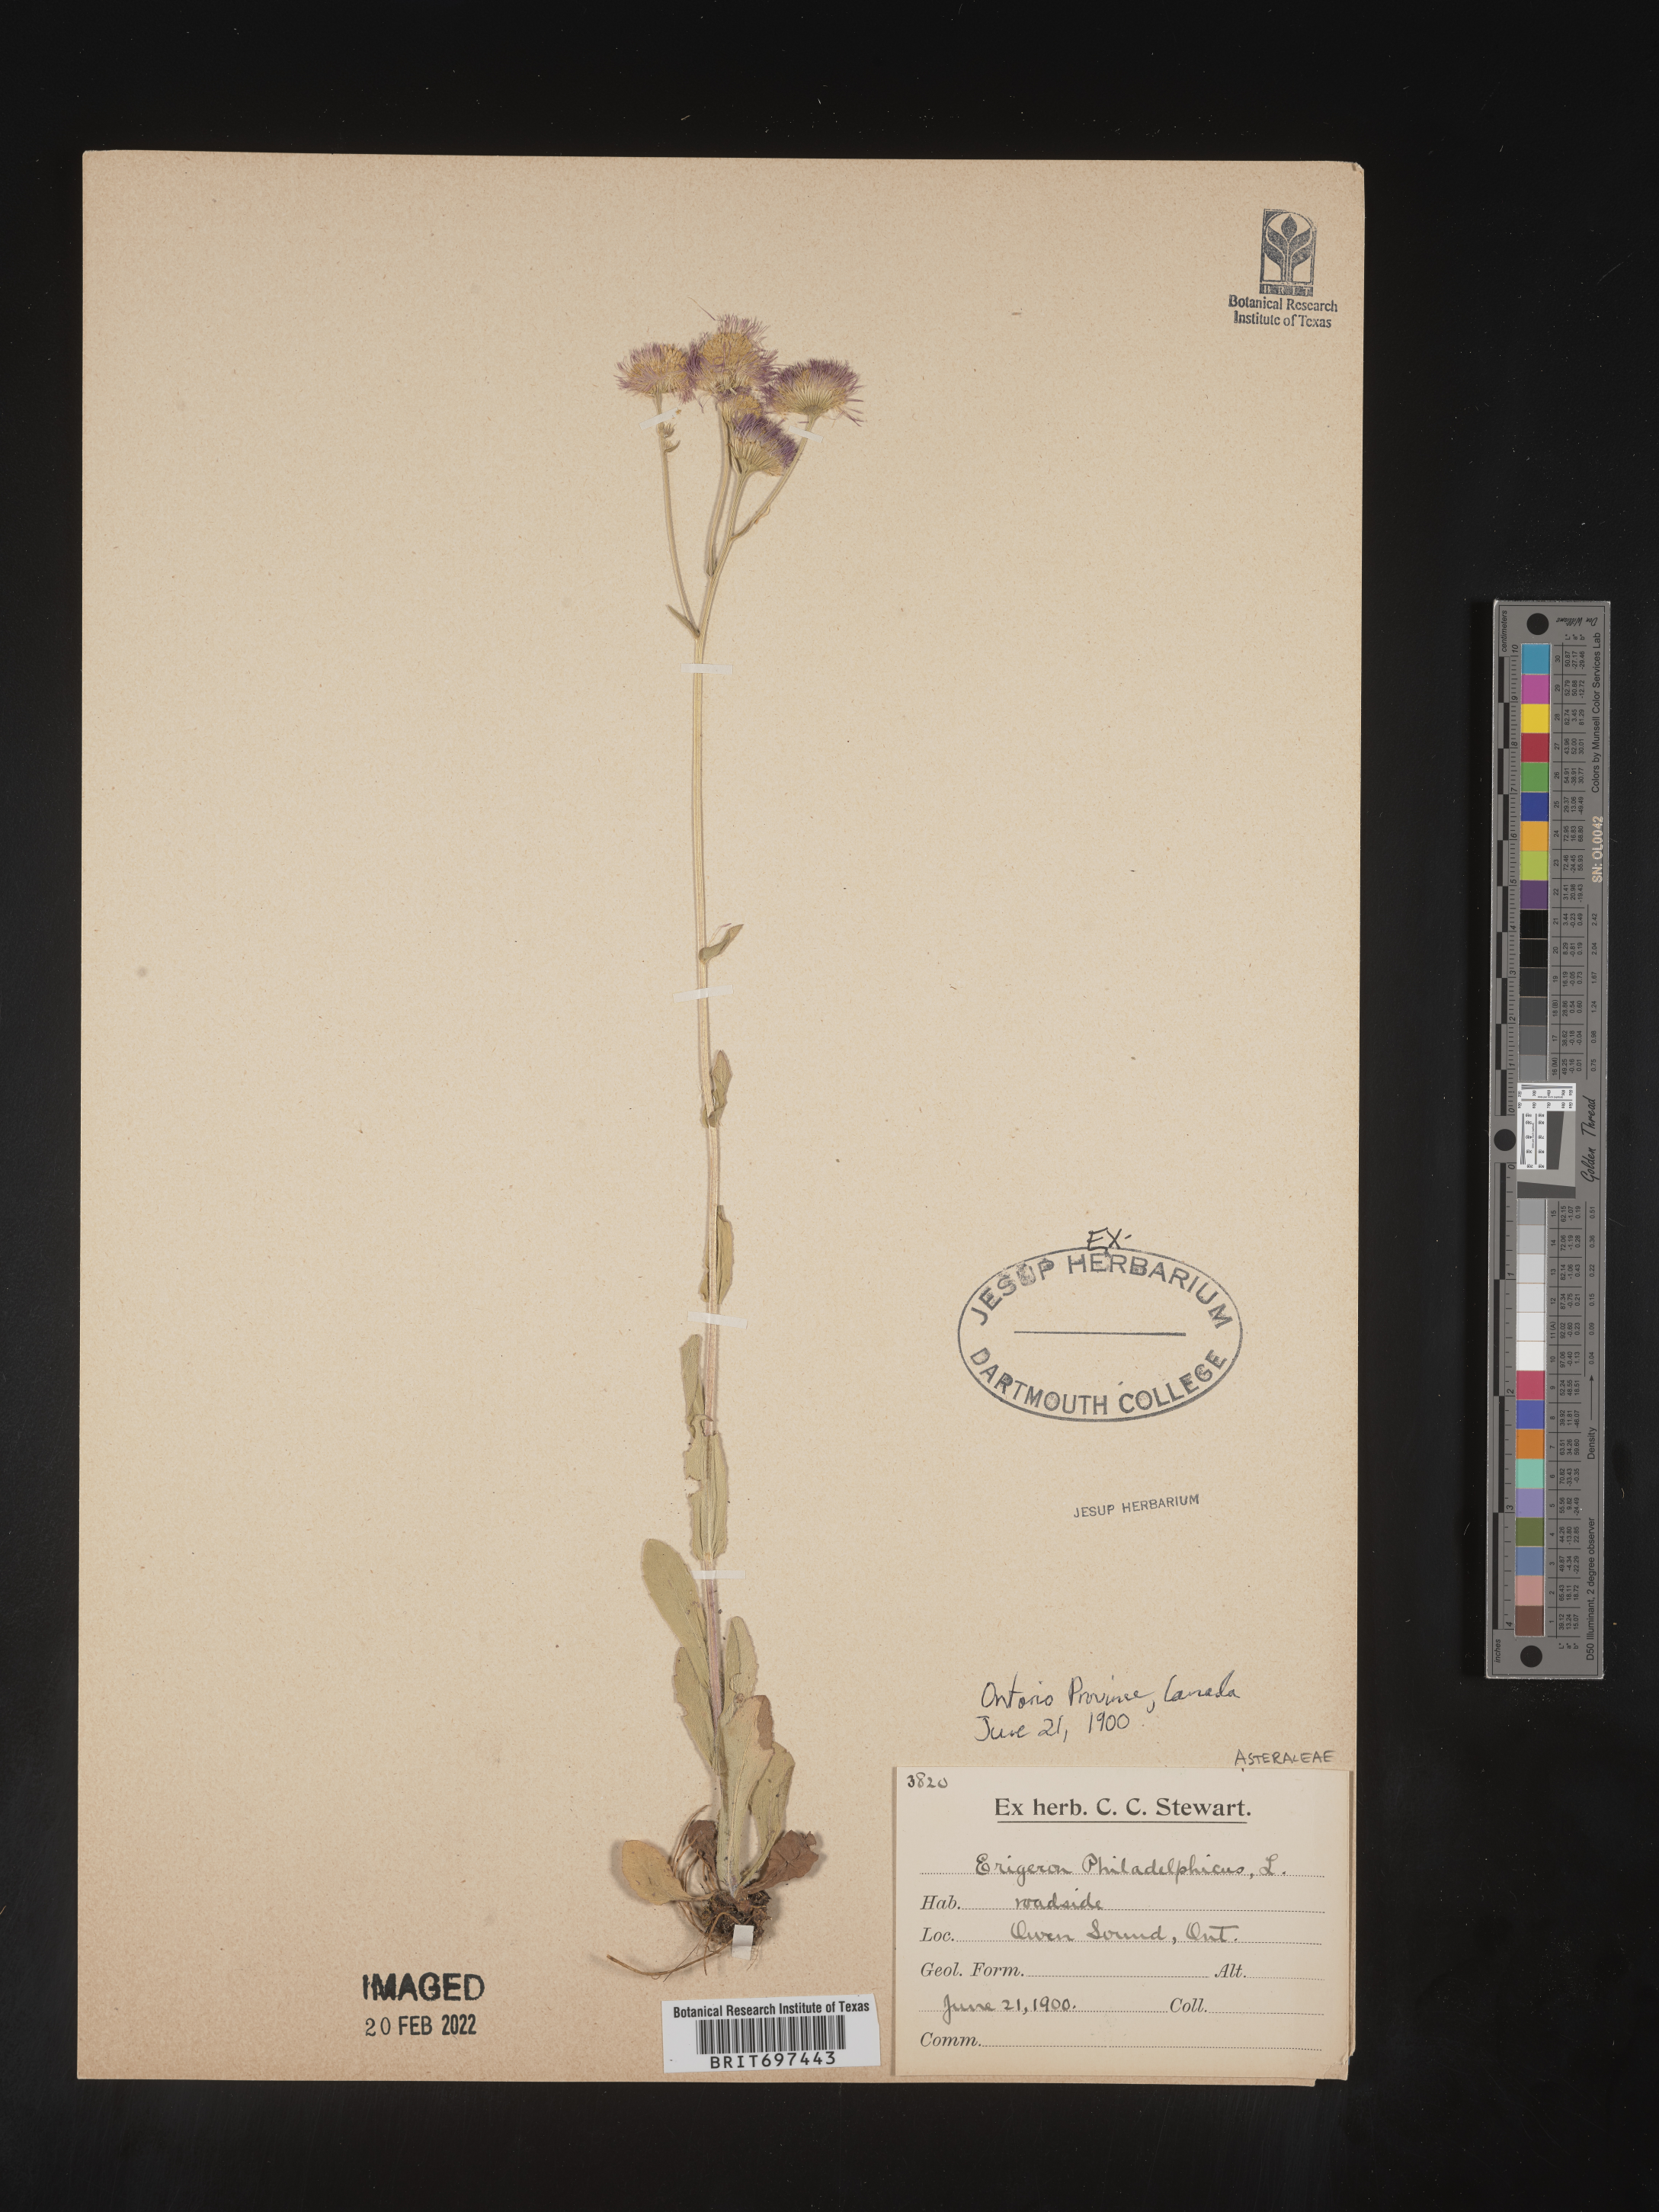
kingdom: Plantae
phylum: Tracheophyta
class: Magnoliopsida
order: Asterales
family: Asteraceae
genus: Erigeron
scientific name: Erigeron philadelphicus
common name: Robin's-plantain
